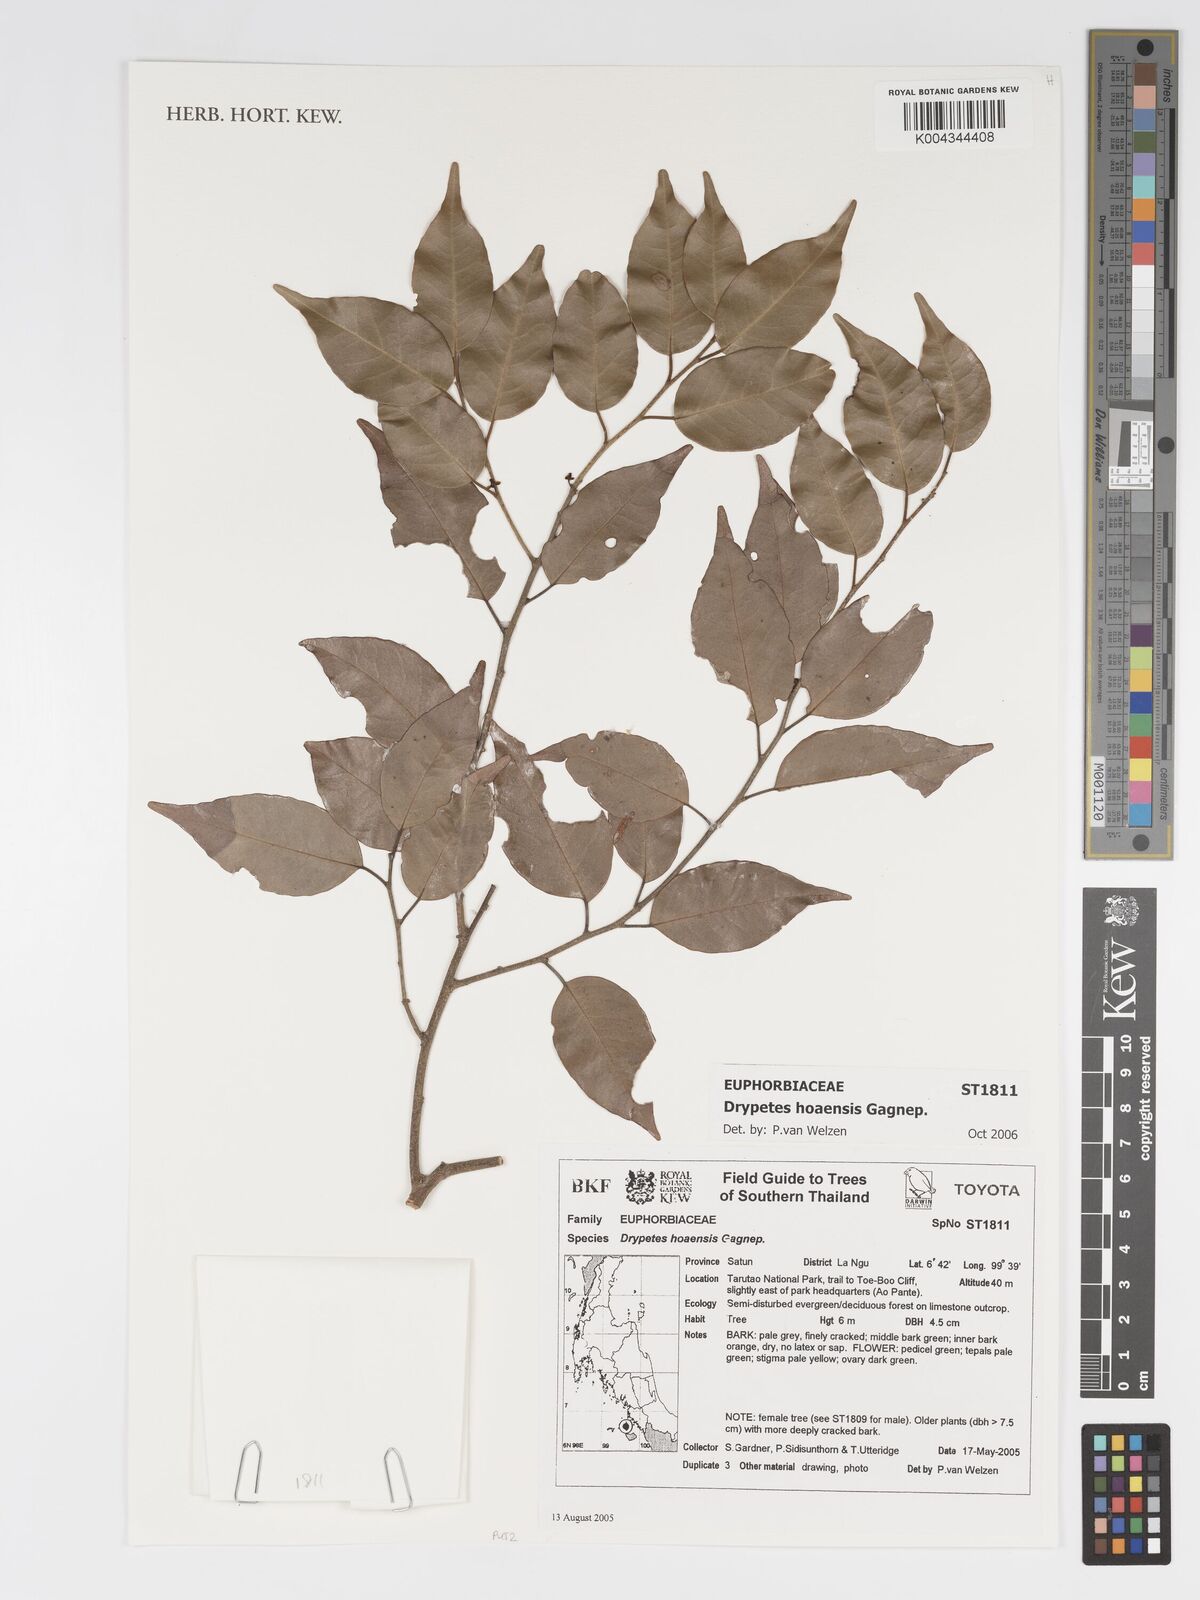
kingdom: Plantae
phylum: Tracheophyta
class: Magnoliopsida
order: Malpighiales
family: Putranjivaceae
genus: Drypetes
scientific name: Drypetes hoaensis
